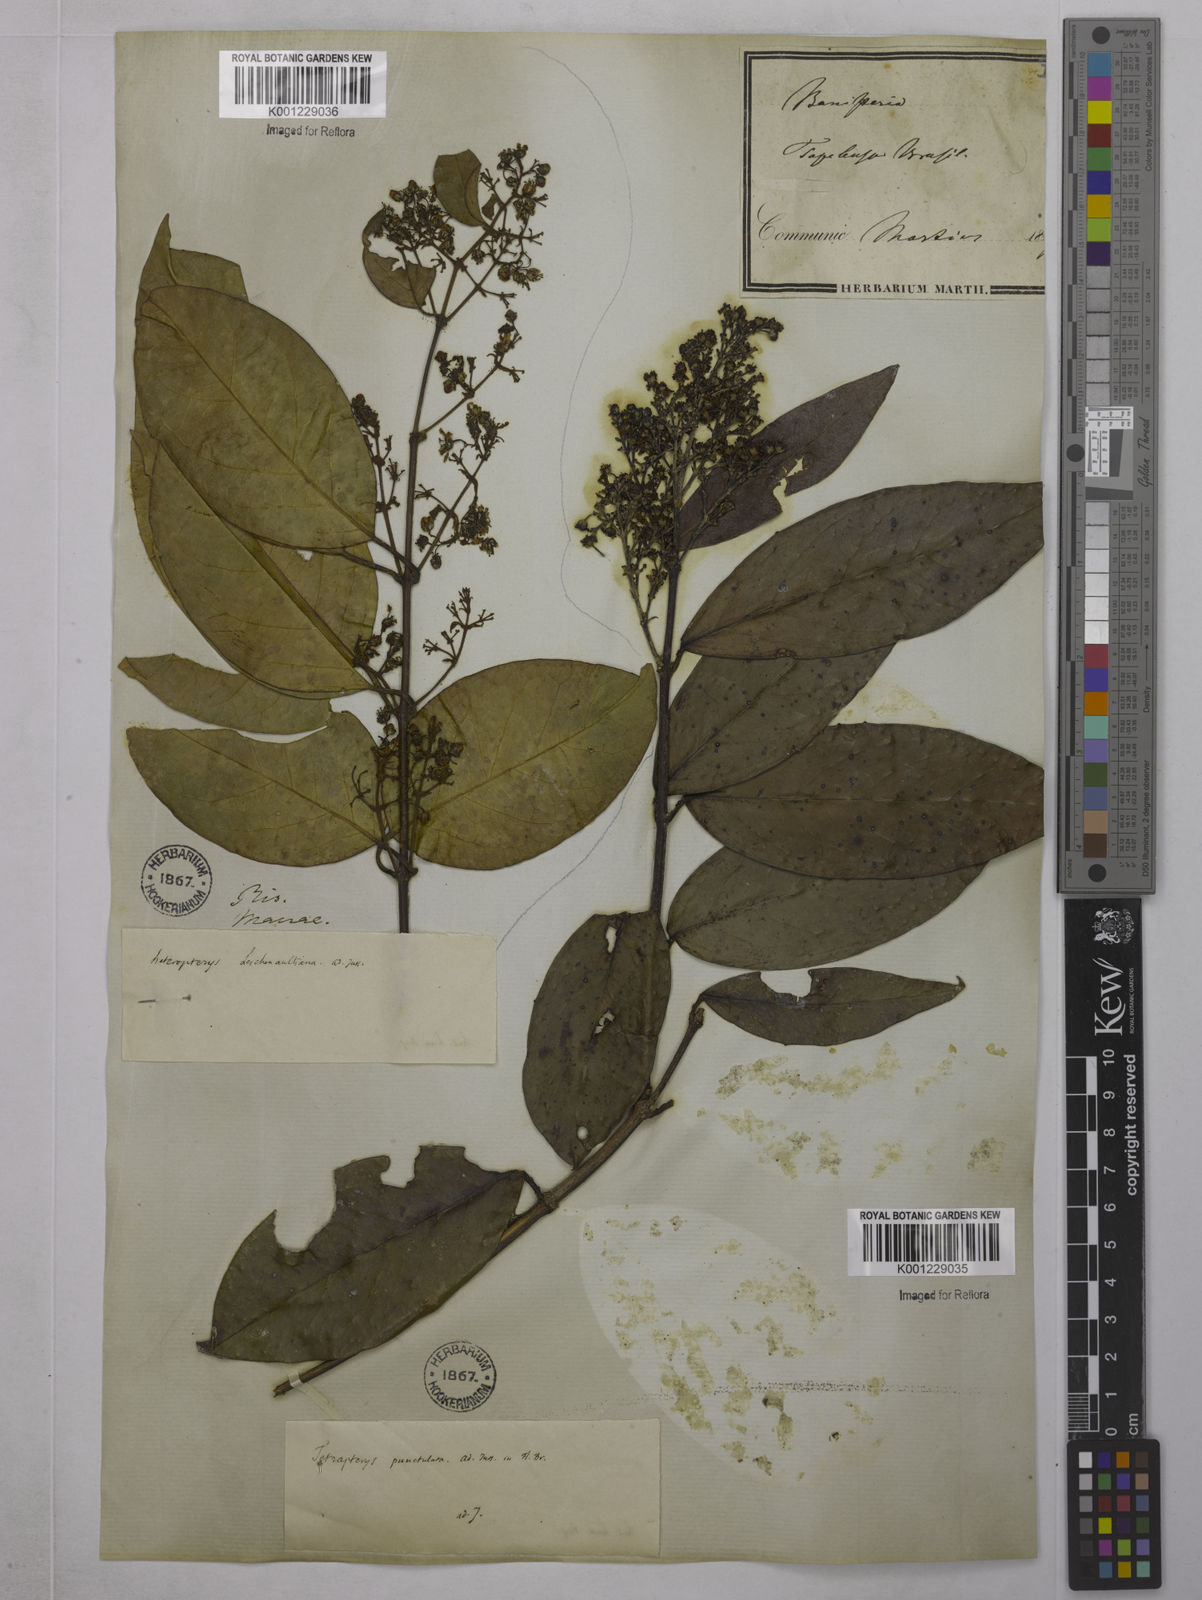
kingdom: Plantae
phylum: Tracheophyta
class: Magnoliopsida
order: Malpighiales
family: Malpighiaceae
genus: Niedenzuella
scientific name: Niedenzuella acutifolia
